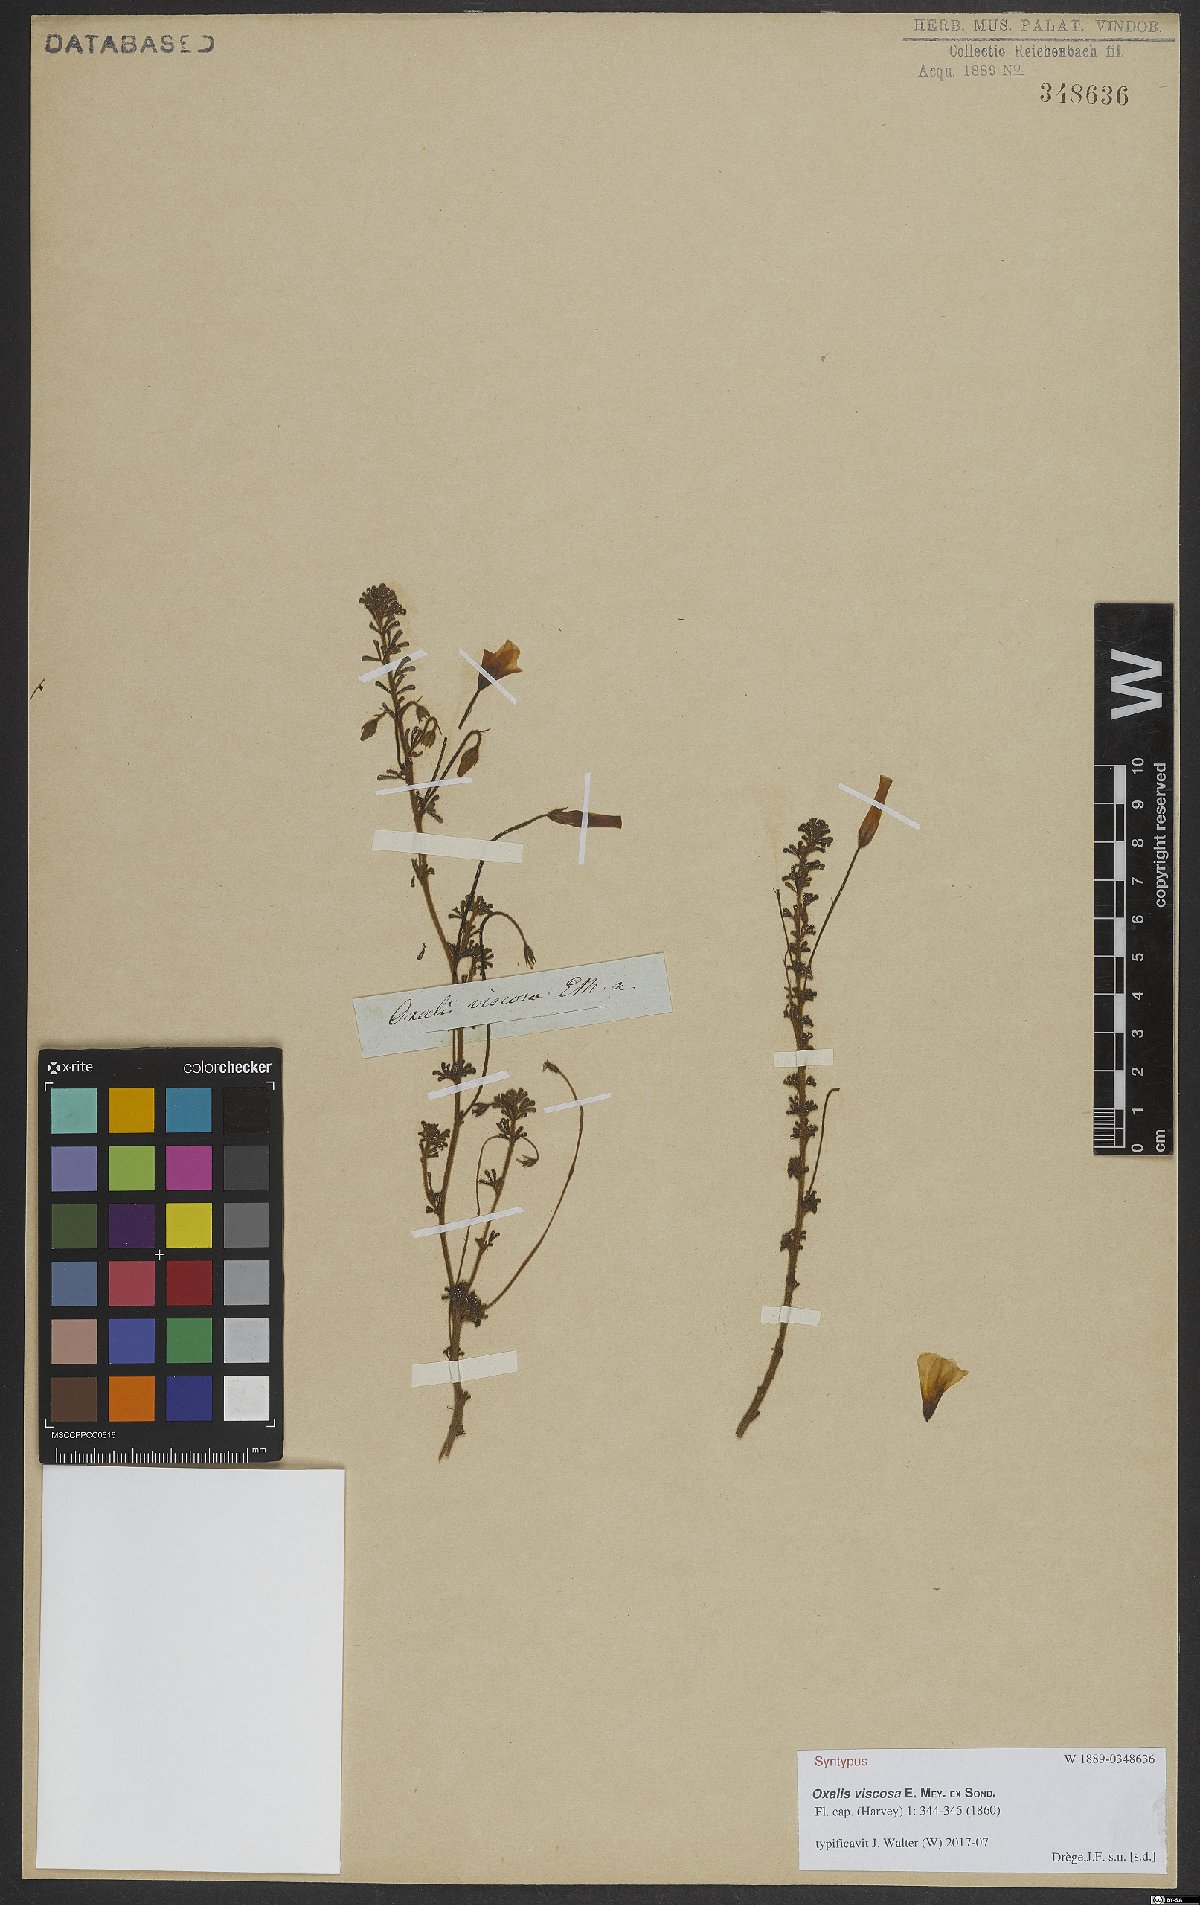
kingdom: Plantae
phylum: Tracheophyta
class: Magnoliopsida
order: Oxalidales
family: Oxalidaceae
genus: Oxalis
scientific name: Oxalis viscosa
